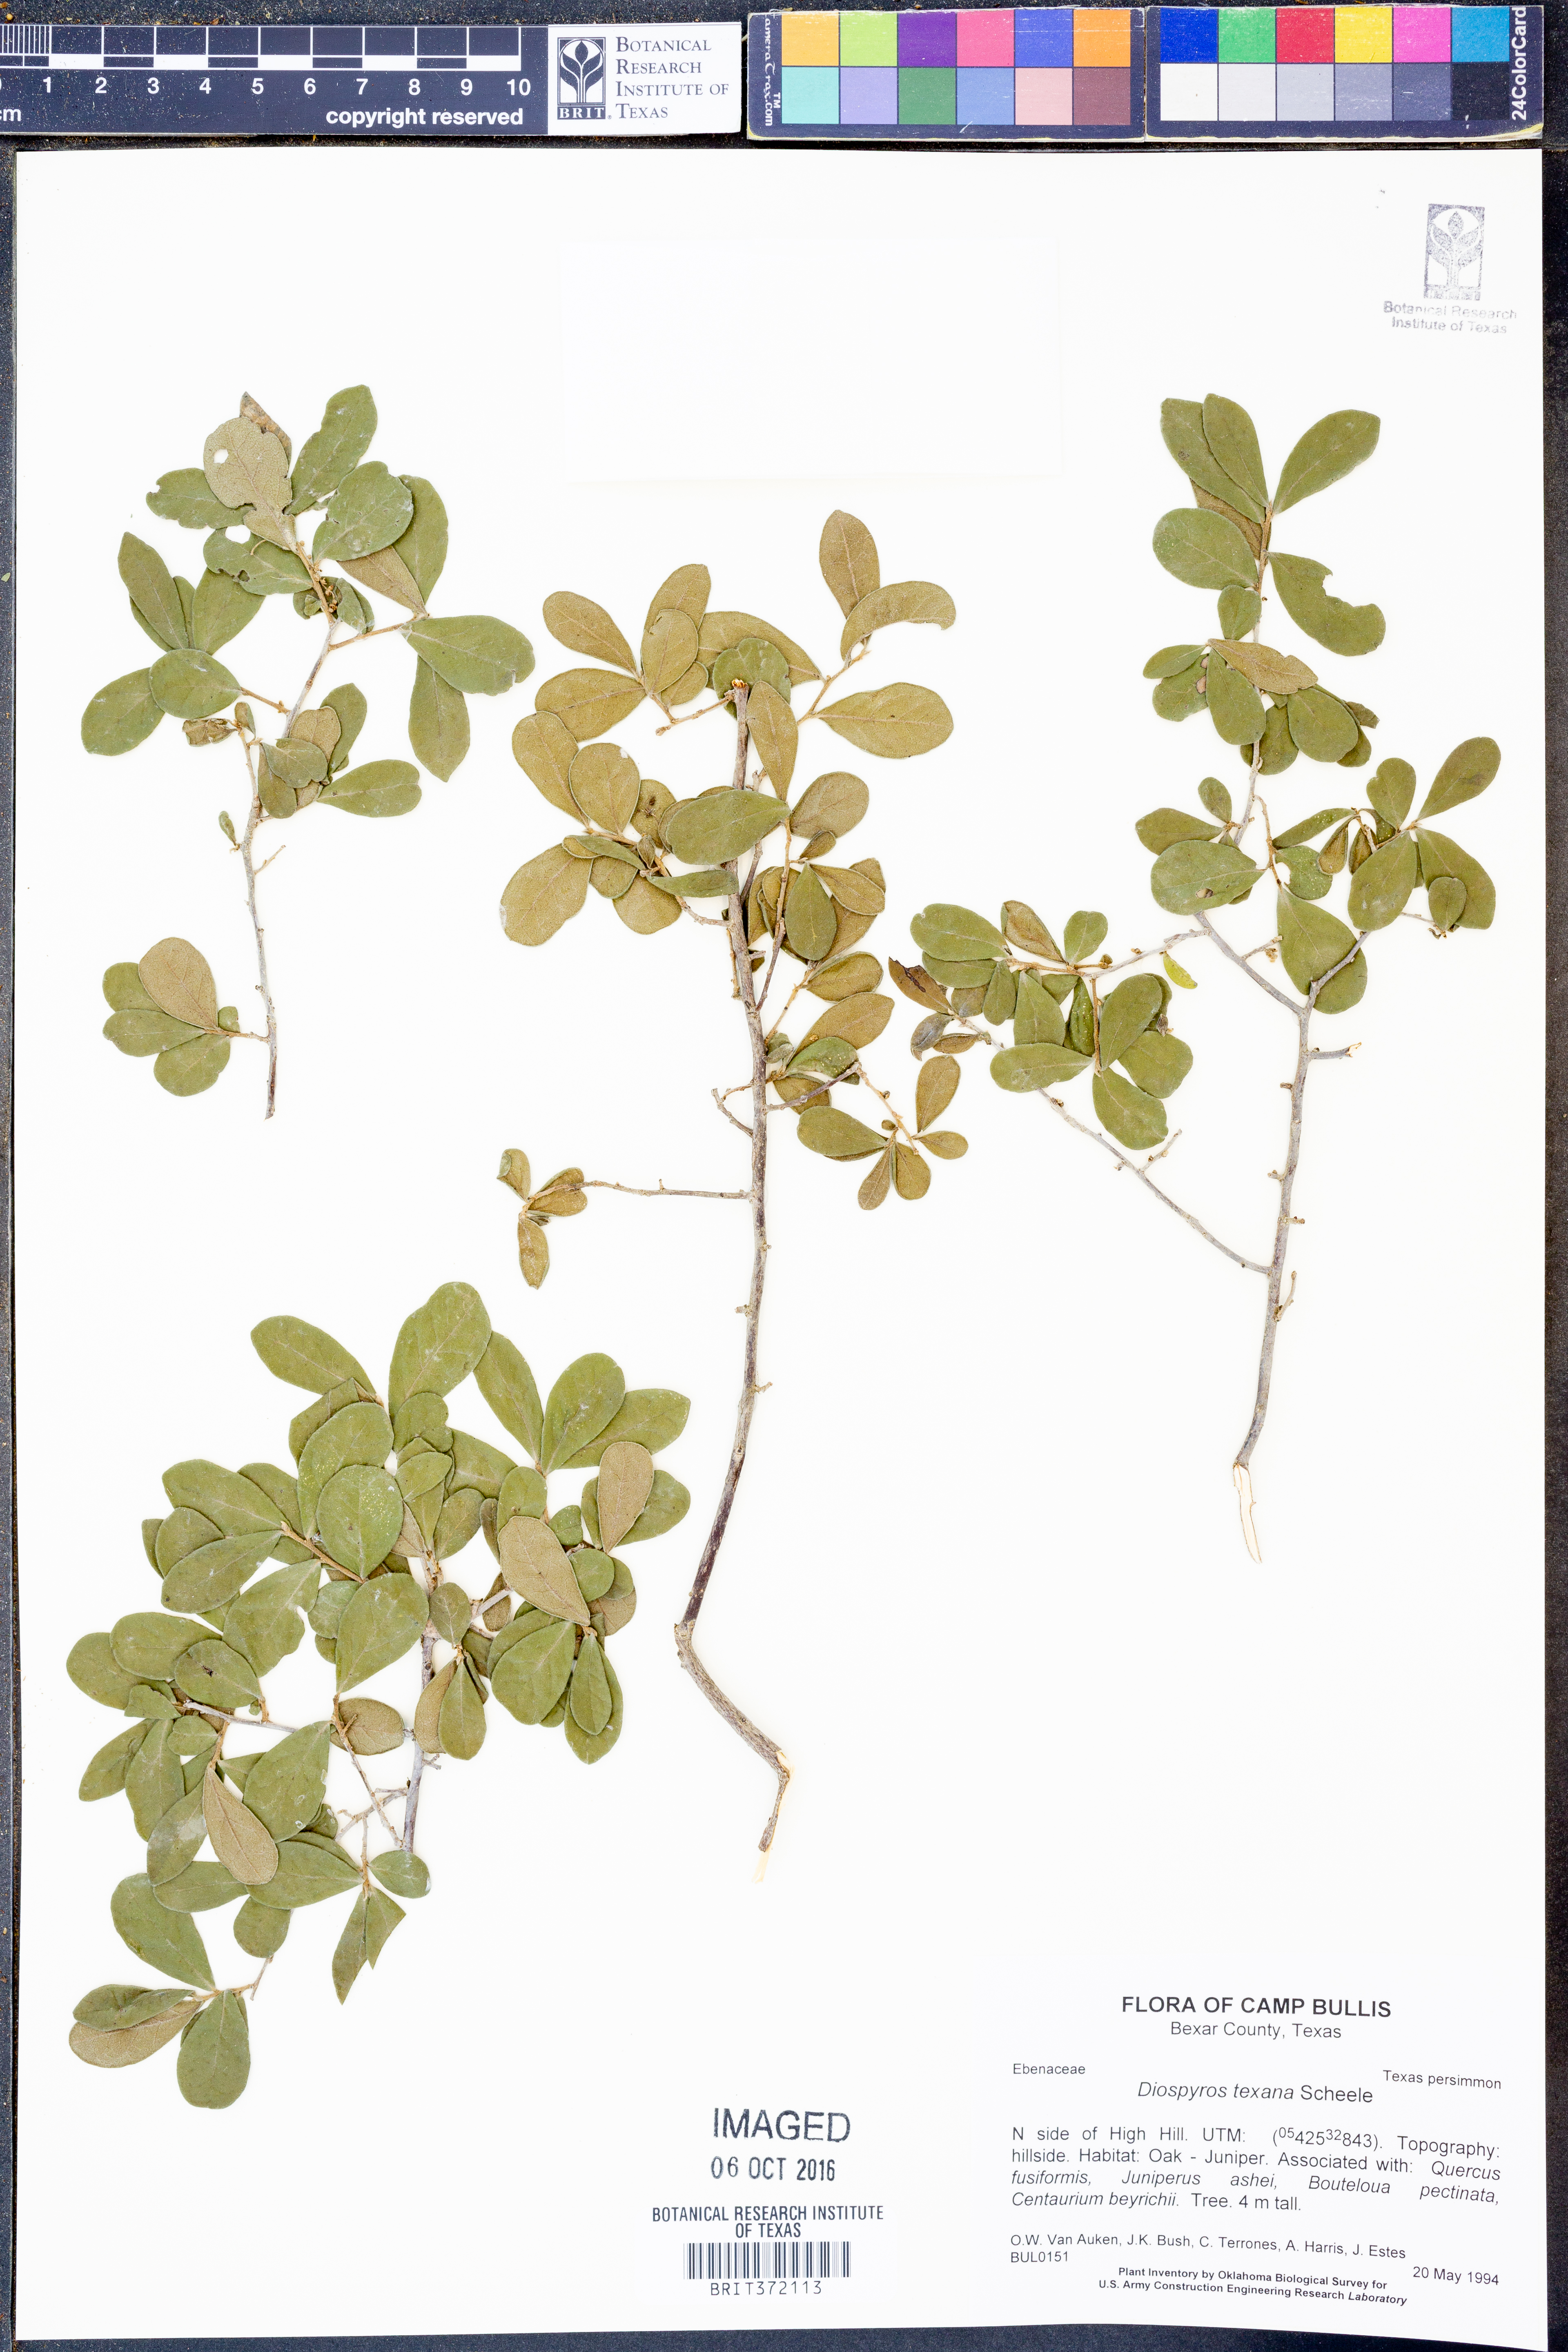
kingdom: Plantae
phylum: Tracheophyta
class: Magnoliopsida
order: Ericales
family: Ebenaceae
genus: Diospyros
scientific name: Diospyros texana
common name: Texas persimmon
